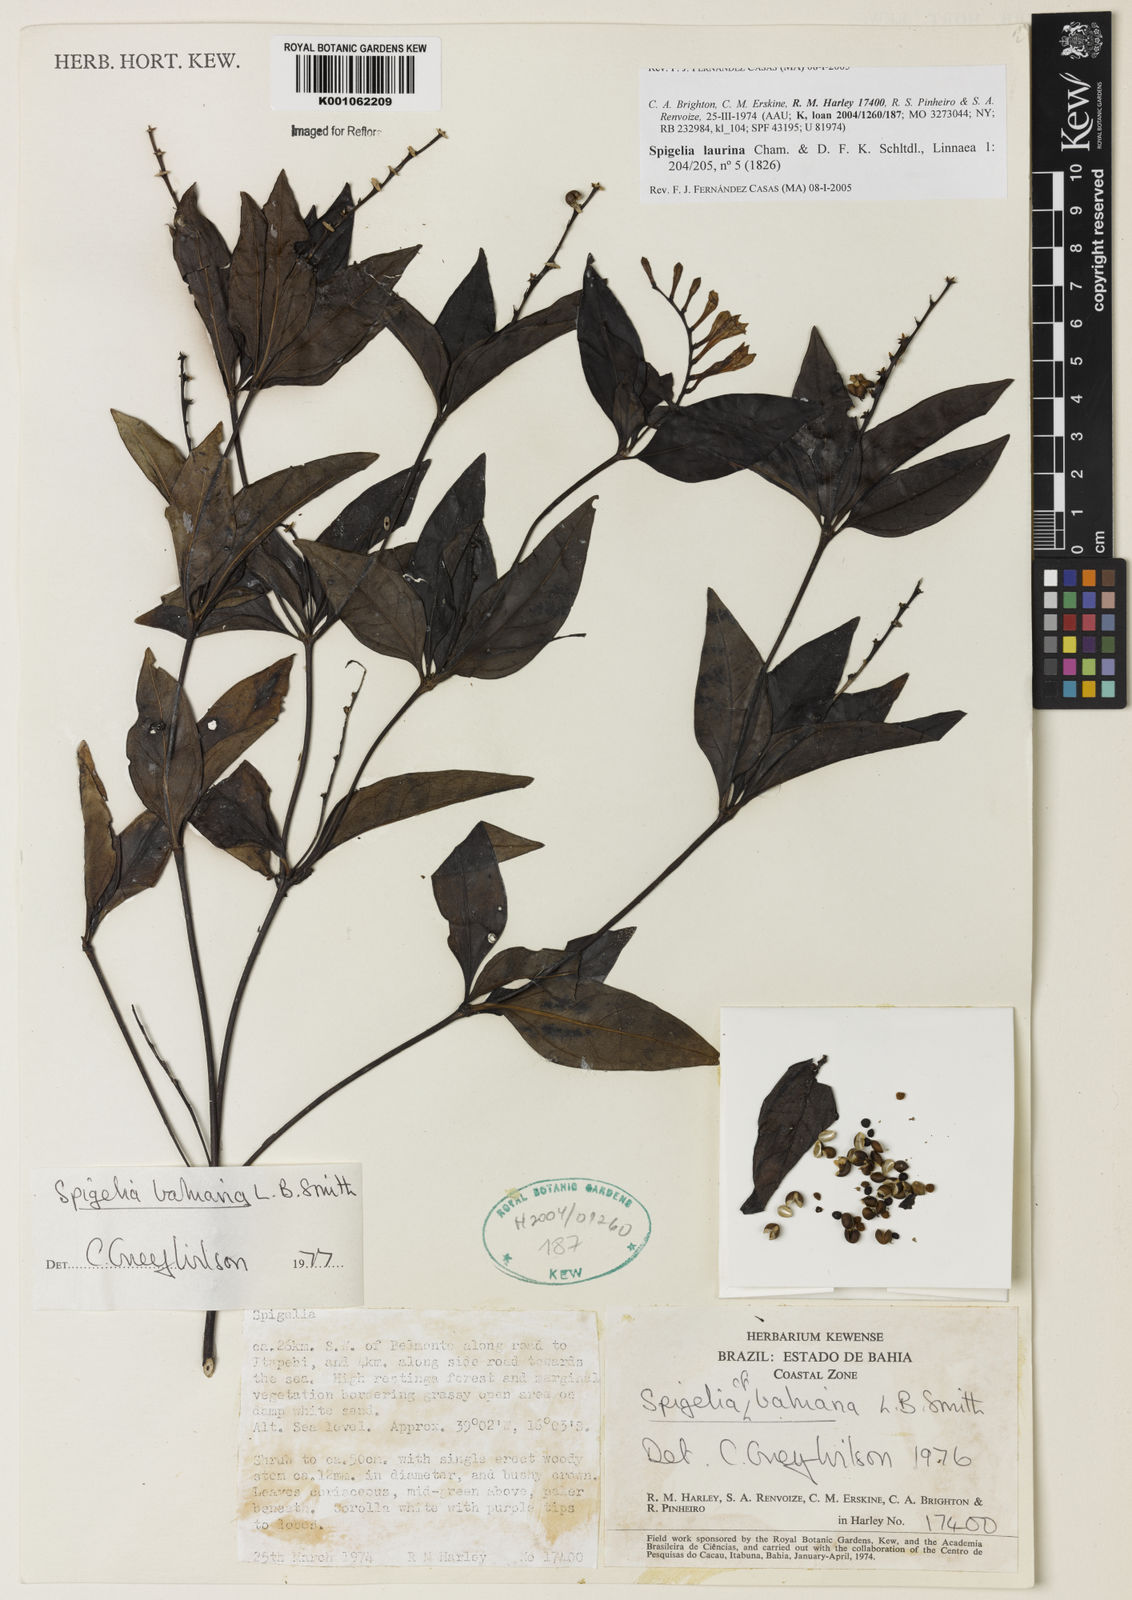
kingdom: Plantae
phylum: Tracheophyta
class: Magnoliopsida
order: Gentianales
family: Loganiaceae
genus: Spigelia
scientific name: Spigelia laurina
